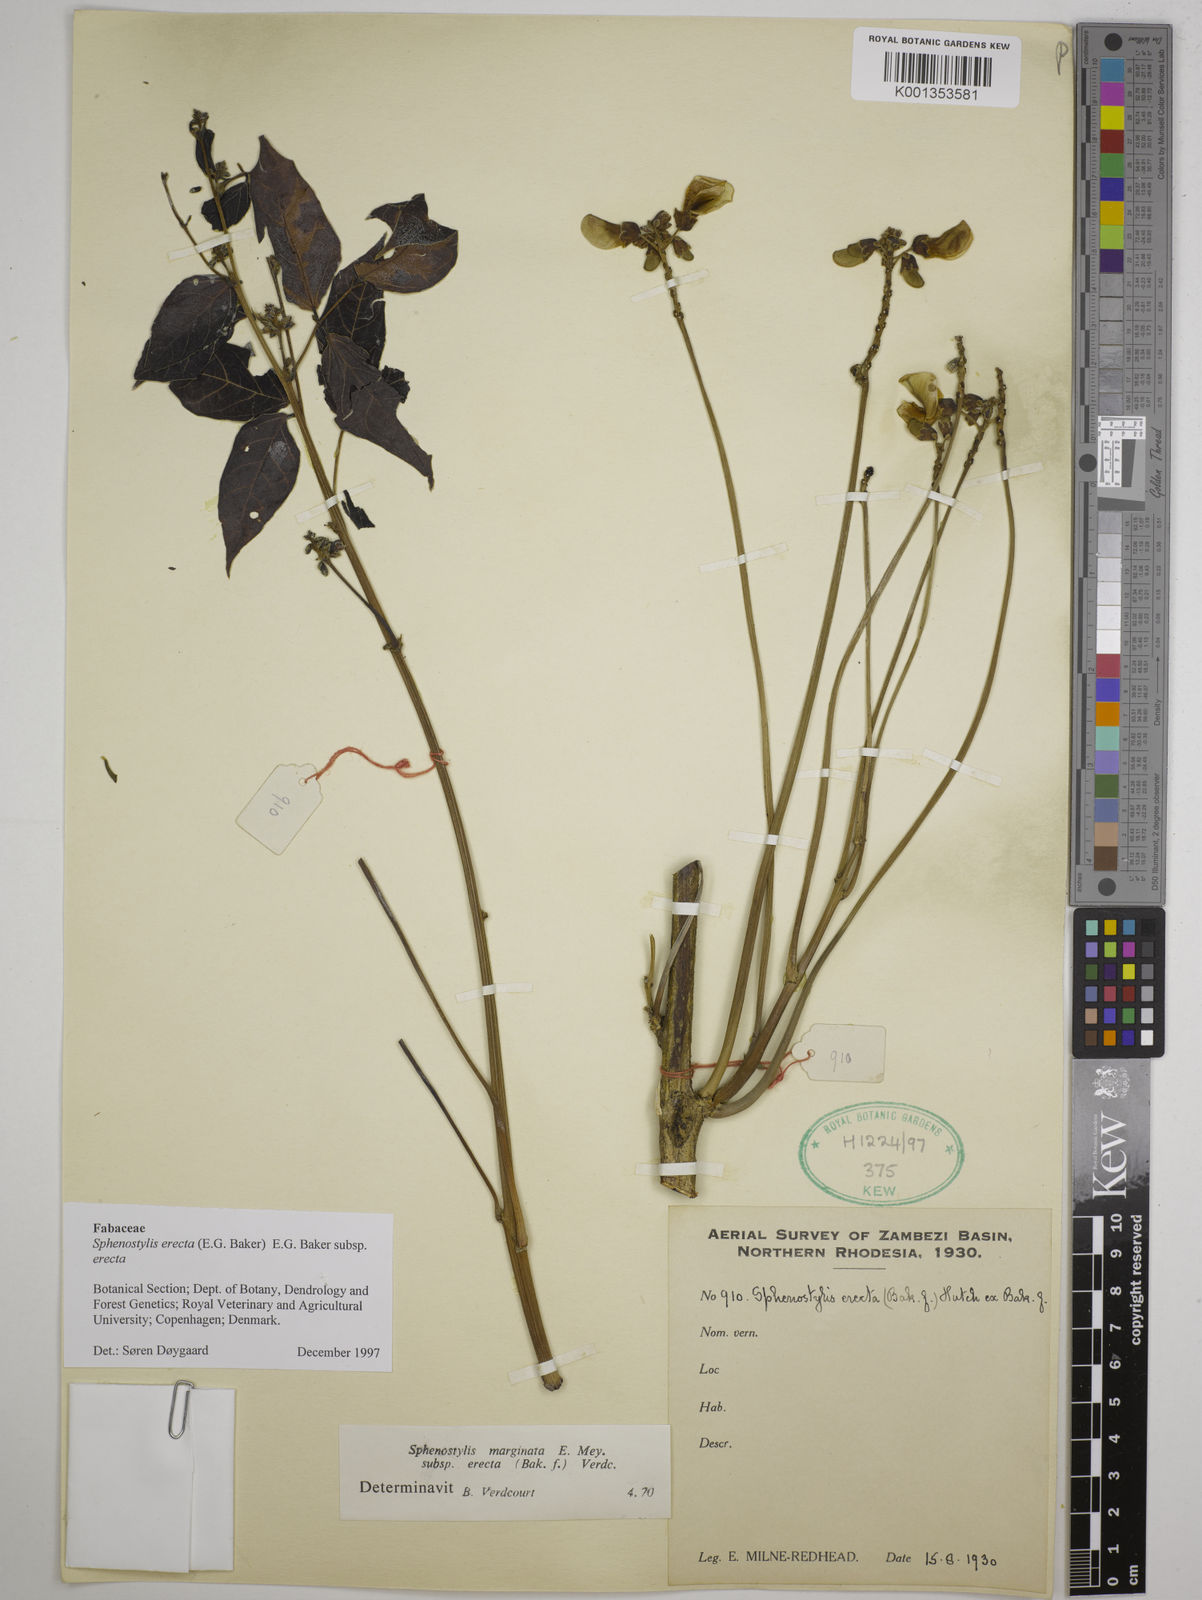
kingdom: Plantae
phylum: Tracheophyta
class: Magnoliopsida
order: Fabales
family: Fabaceae
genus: Sphenostylis
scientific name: Sphenostylis erecta
